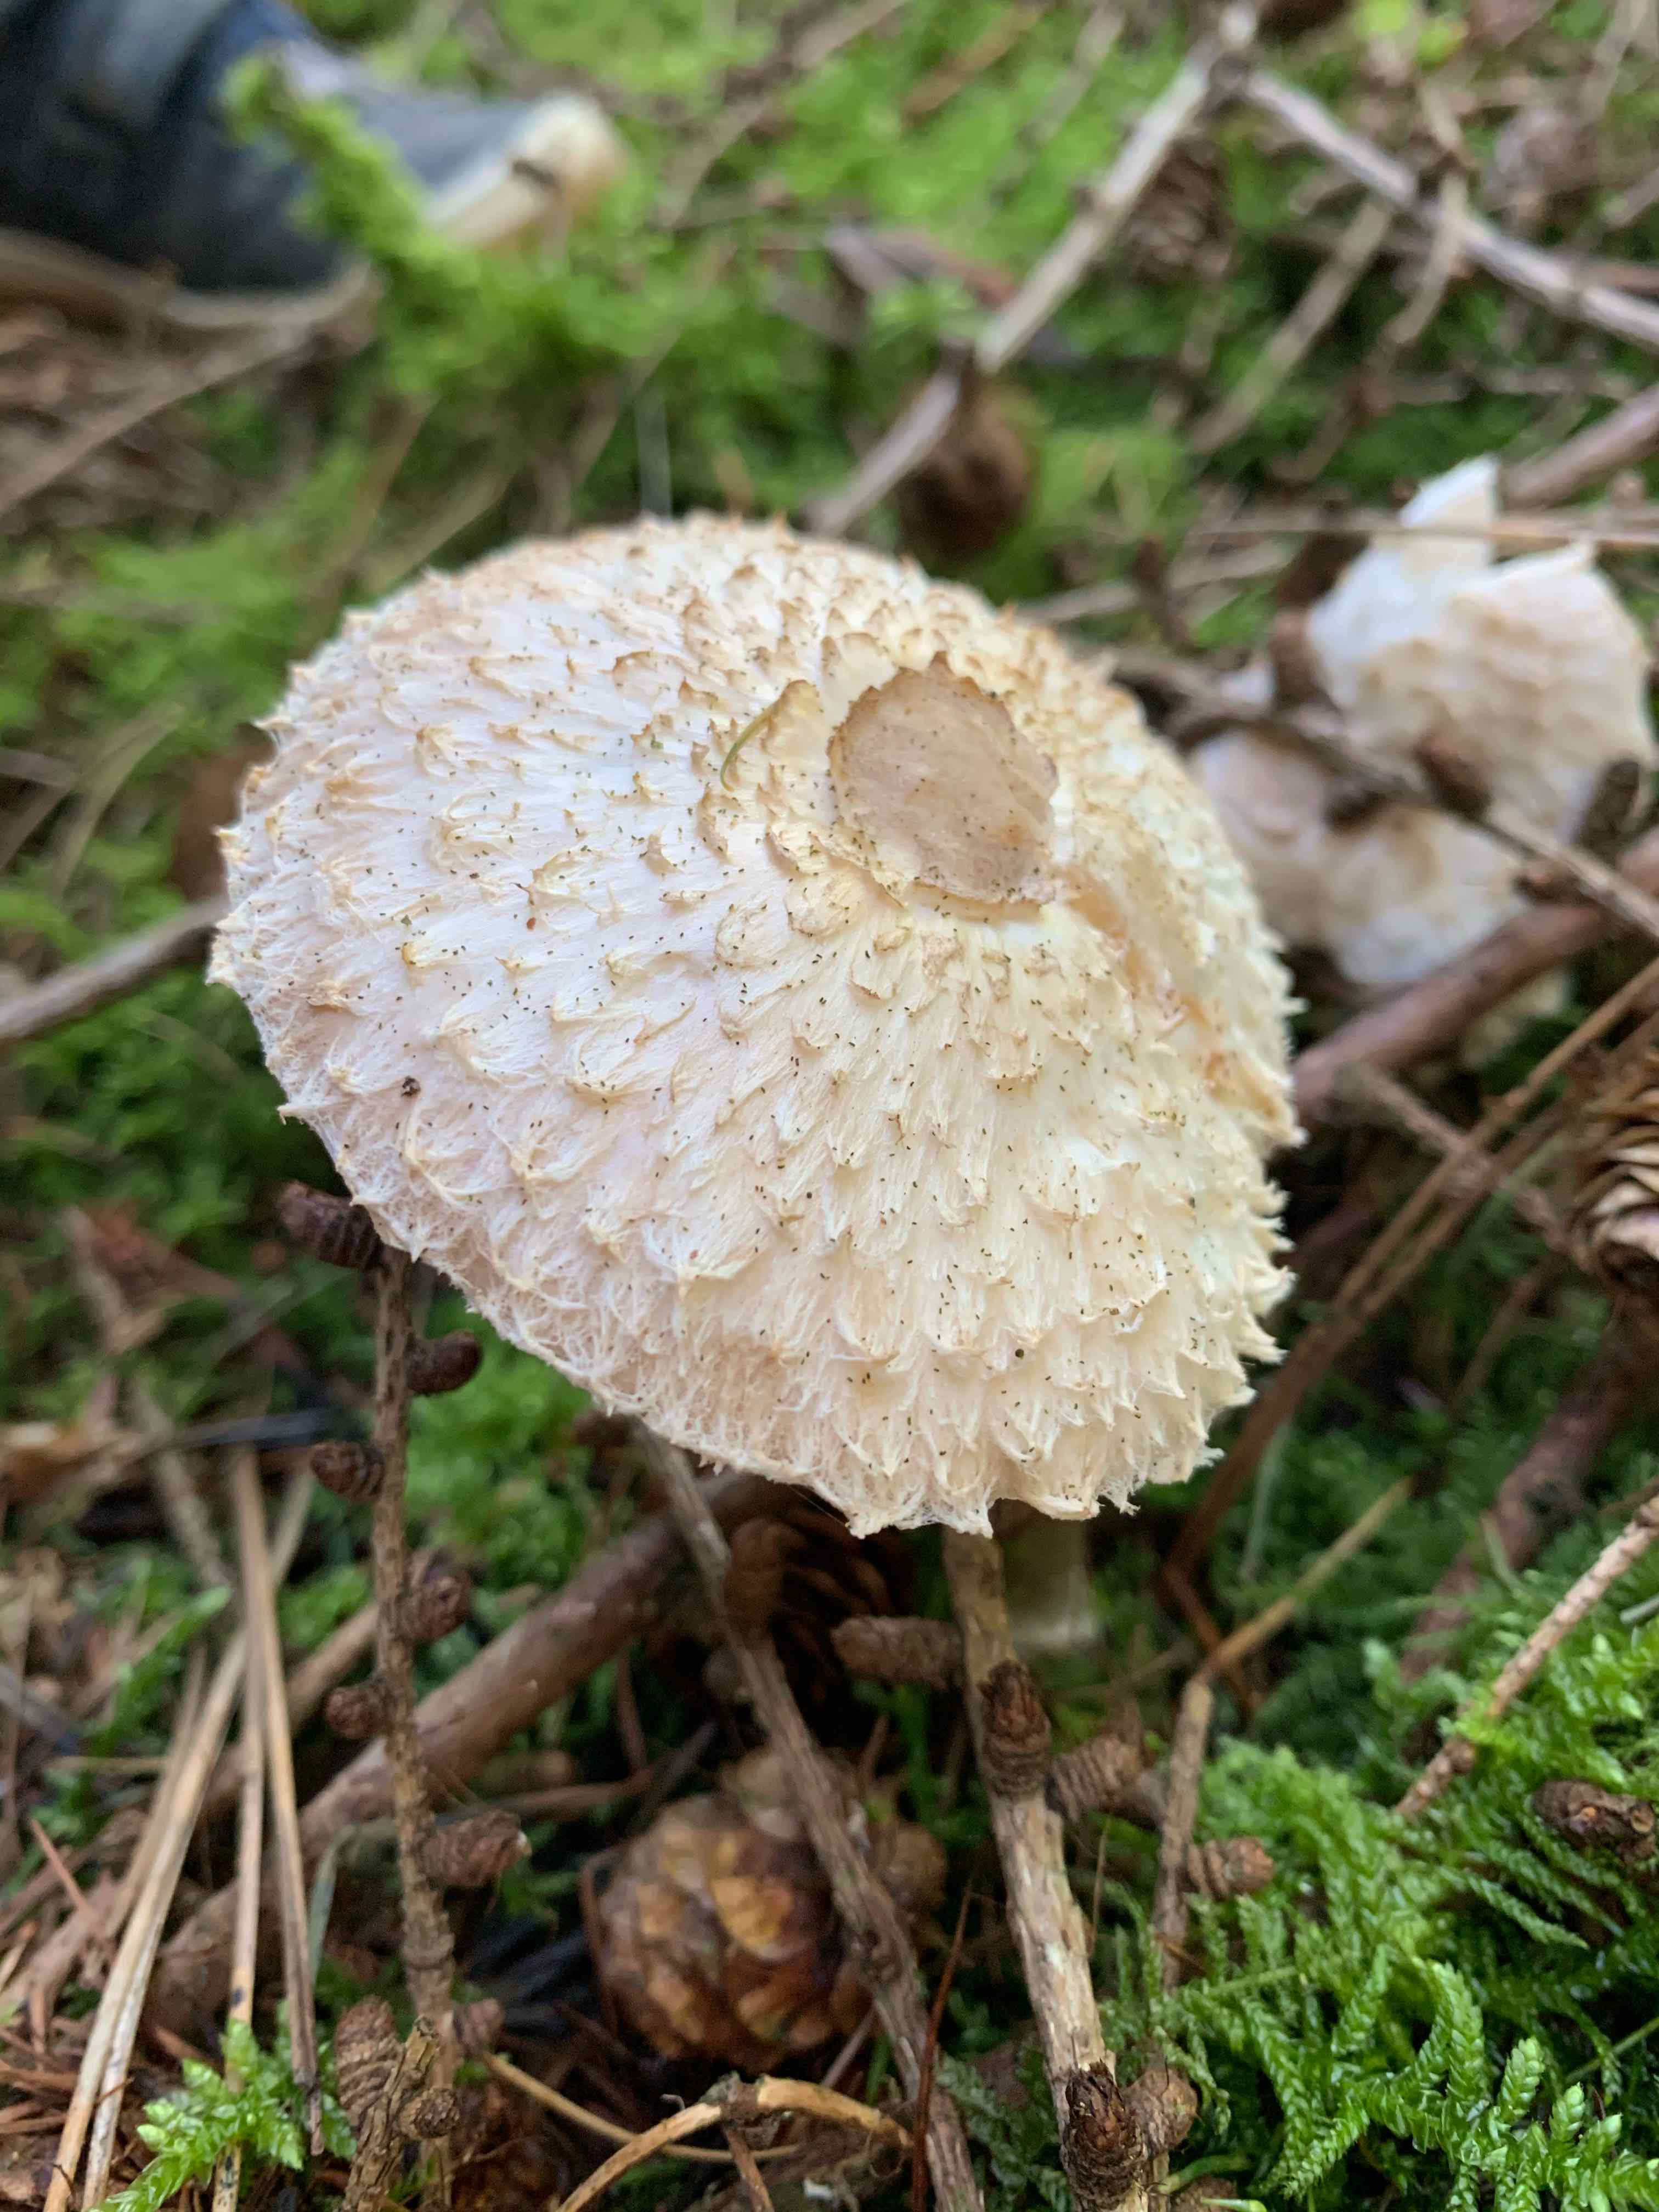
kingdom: Fungi
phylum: Basidiomycota
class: Agaricomycetes
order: Agaricales
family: Agaricaceae
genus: Leucoagaricus
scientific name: Leucoagaricus nympharum
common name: gran-silkehat
